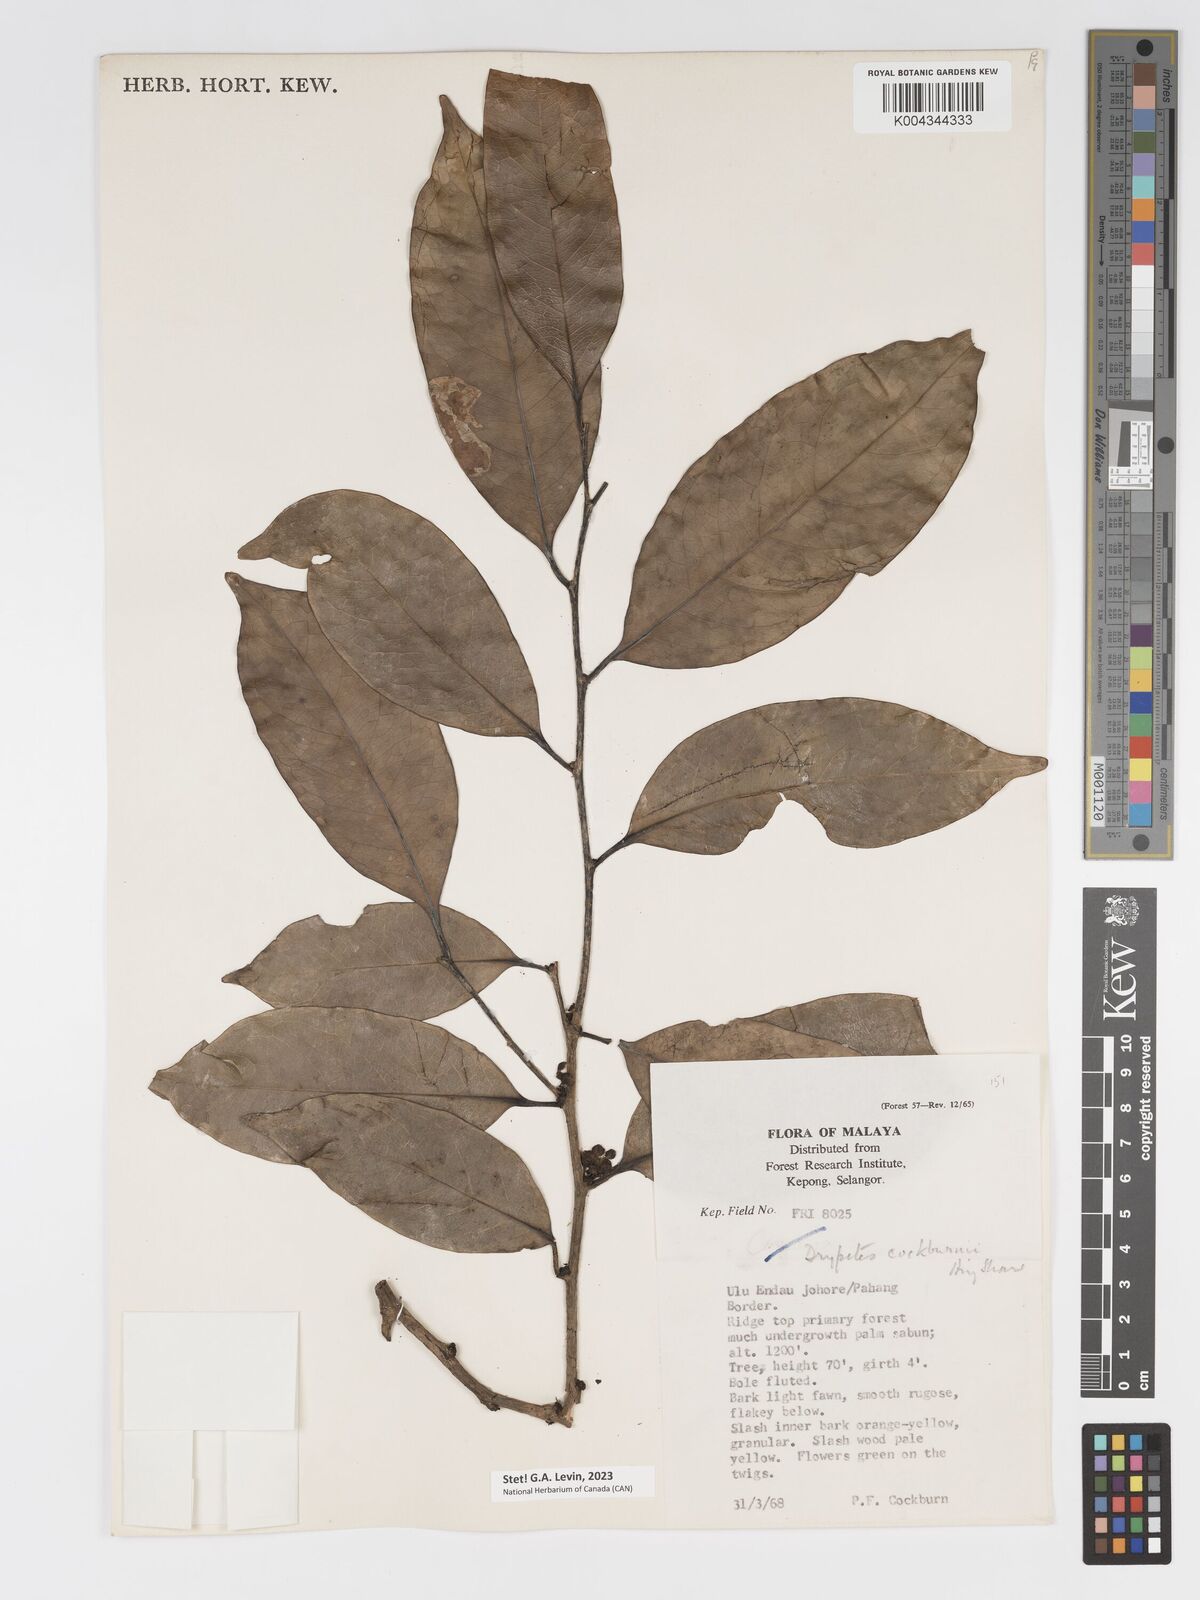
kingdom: Plantae
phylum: Tracheophyta
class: Magnoliopsida
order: Malpighiales
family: Putranjivaceae
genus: Drypetes
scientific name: Drypetes cockburnii
